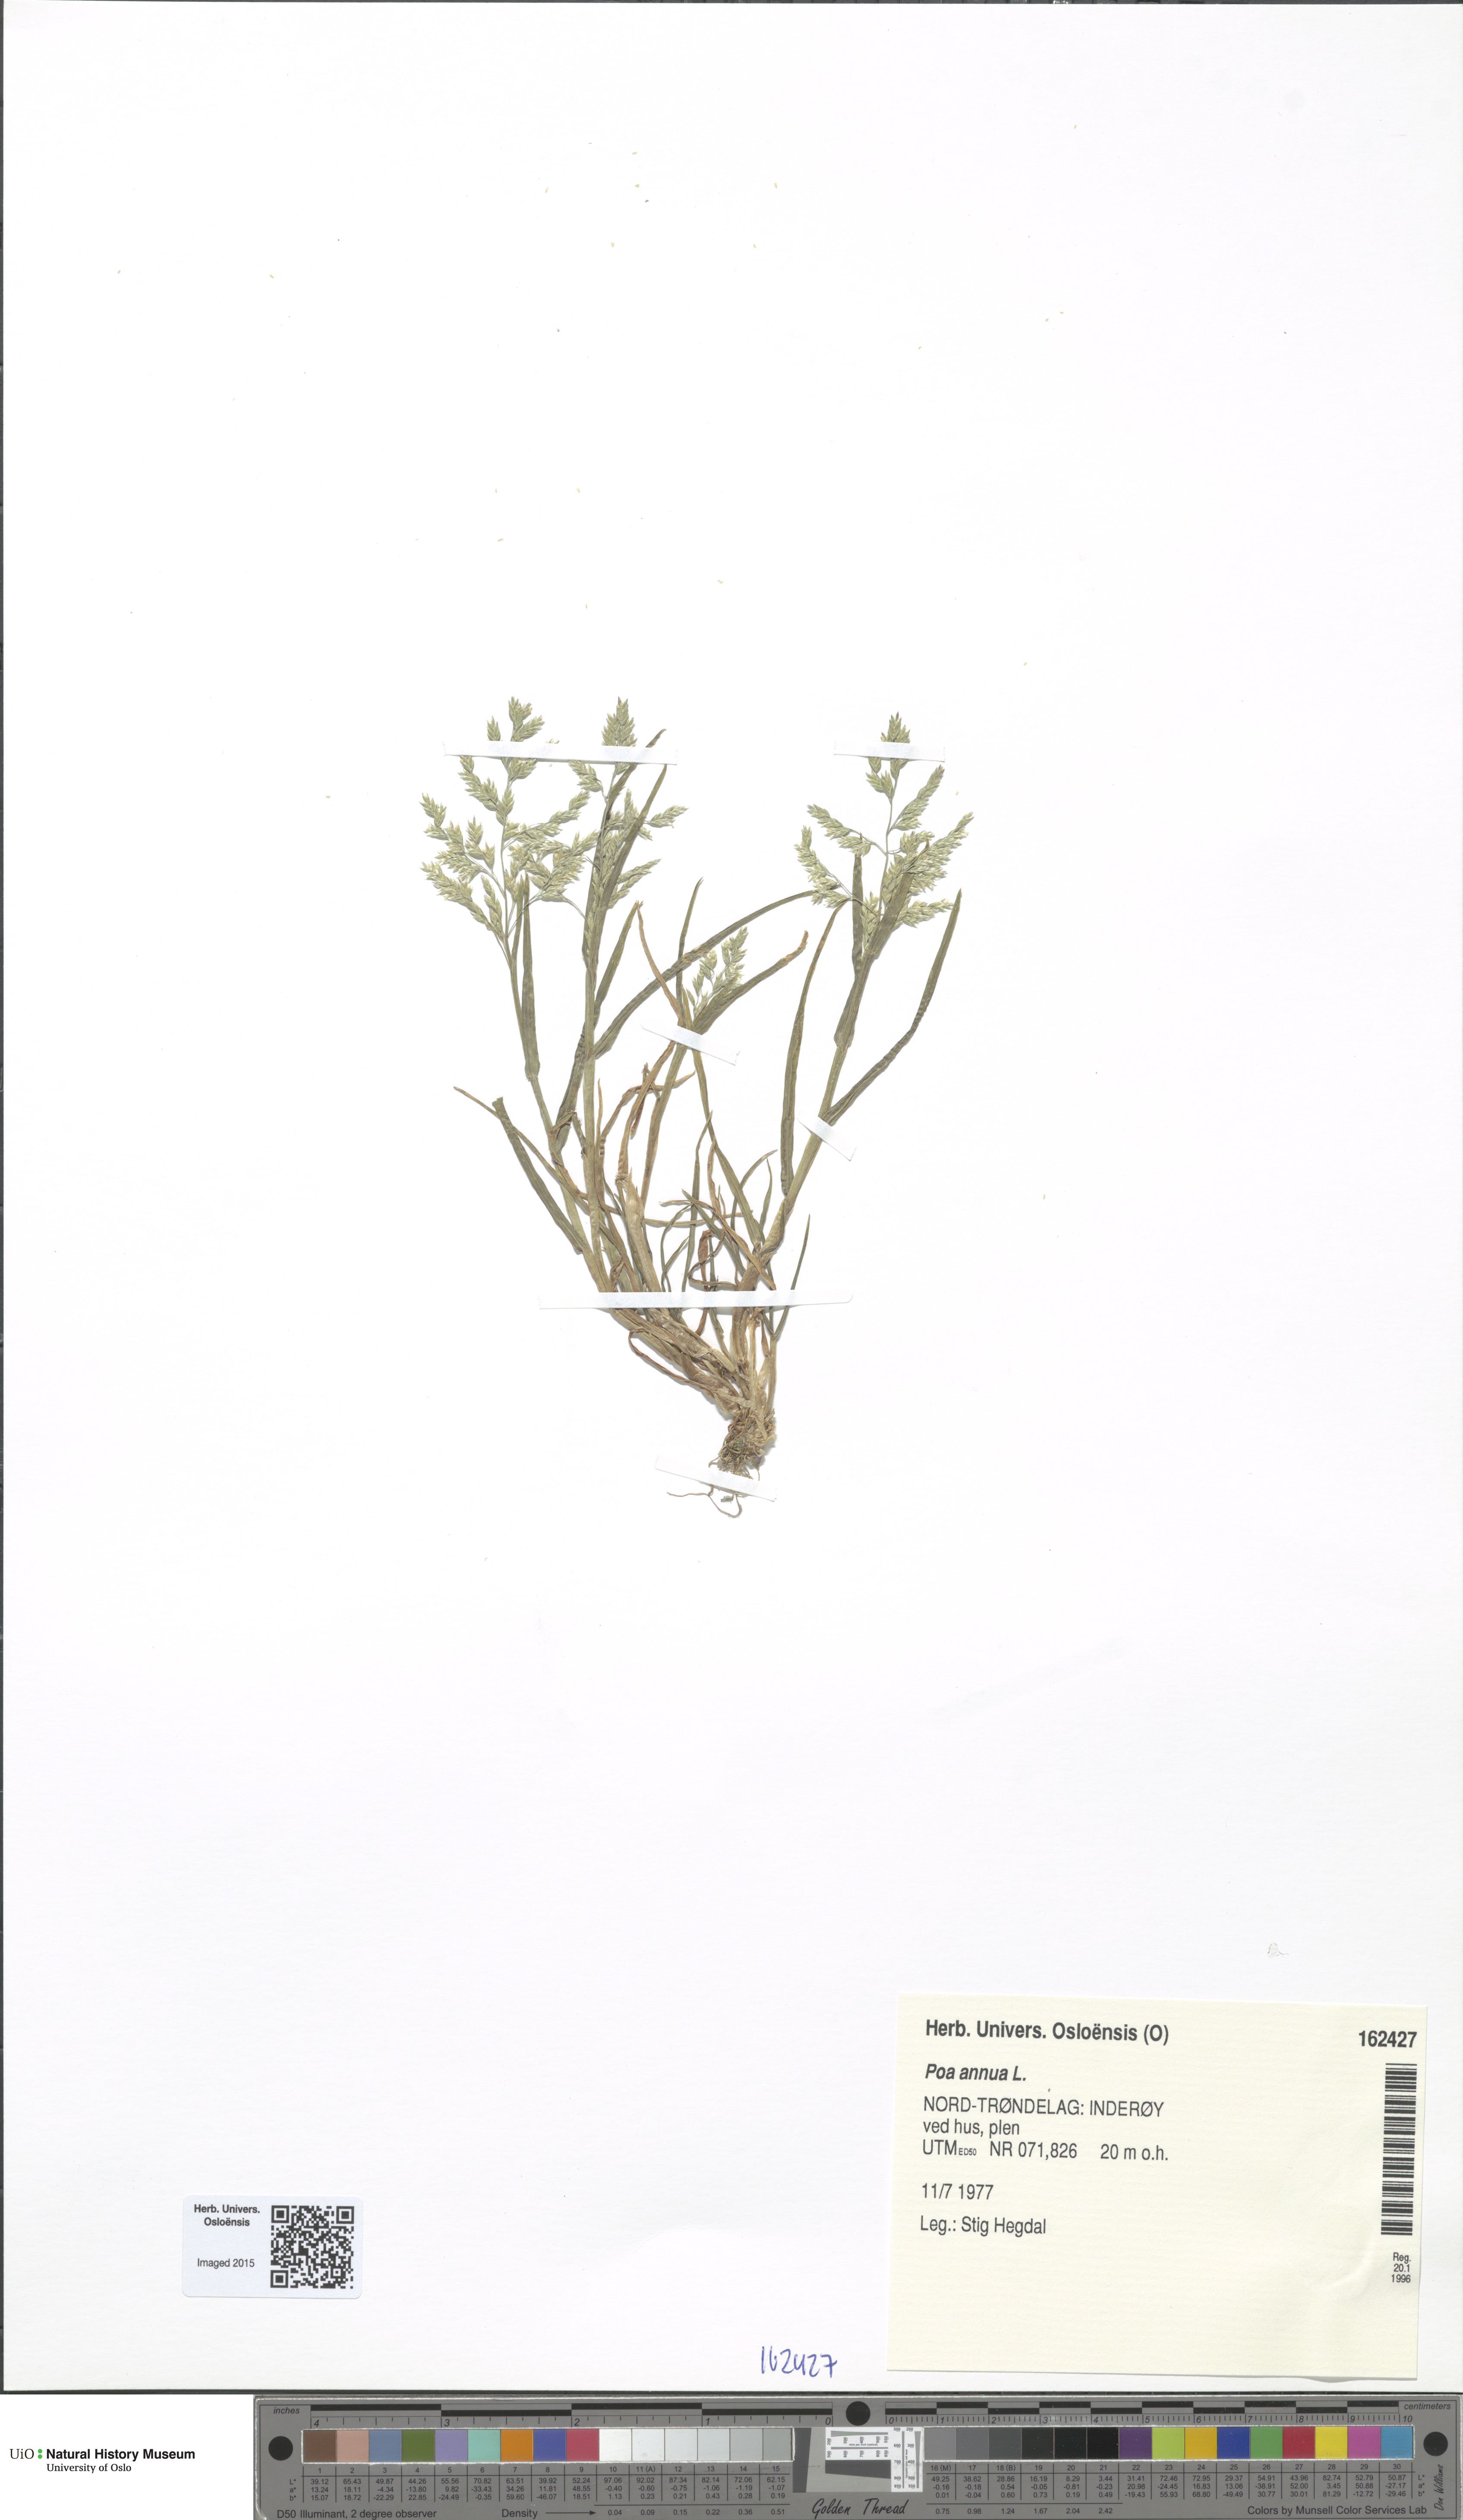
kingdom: Plantae
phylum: Tracheophyta
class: Liliopsida
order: Poales
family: Poaceae
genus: Poa
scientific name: Poa annua
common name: Annual bluegrass
